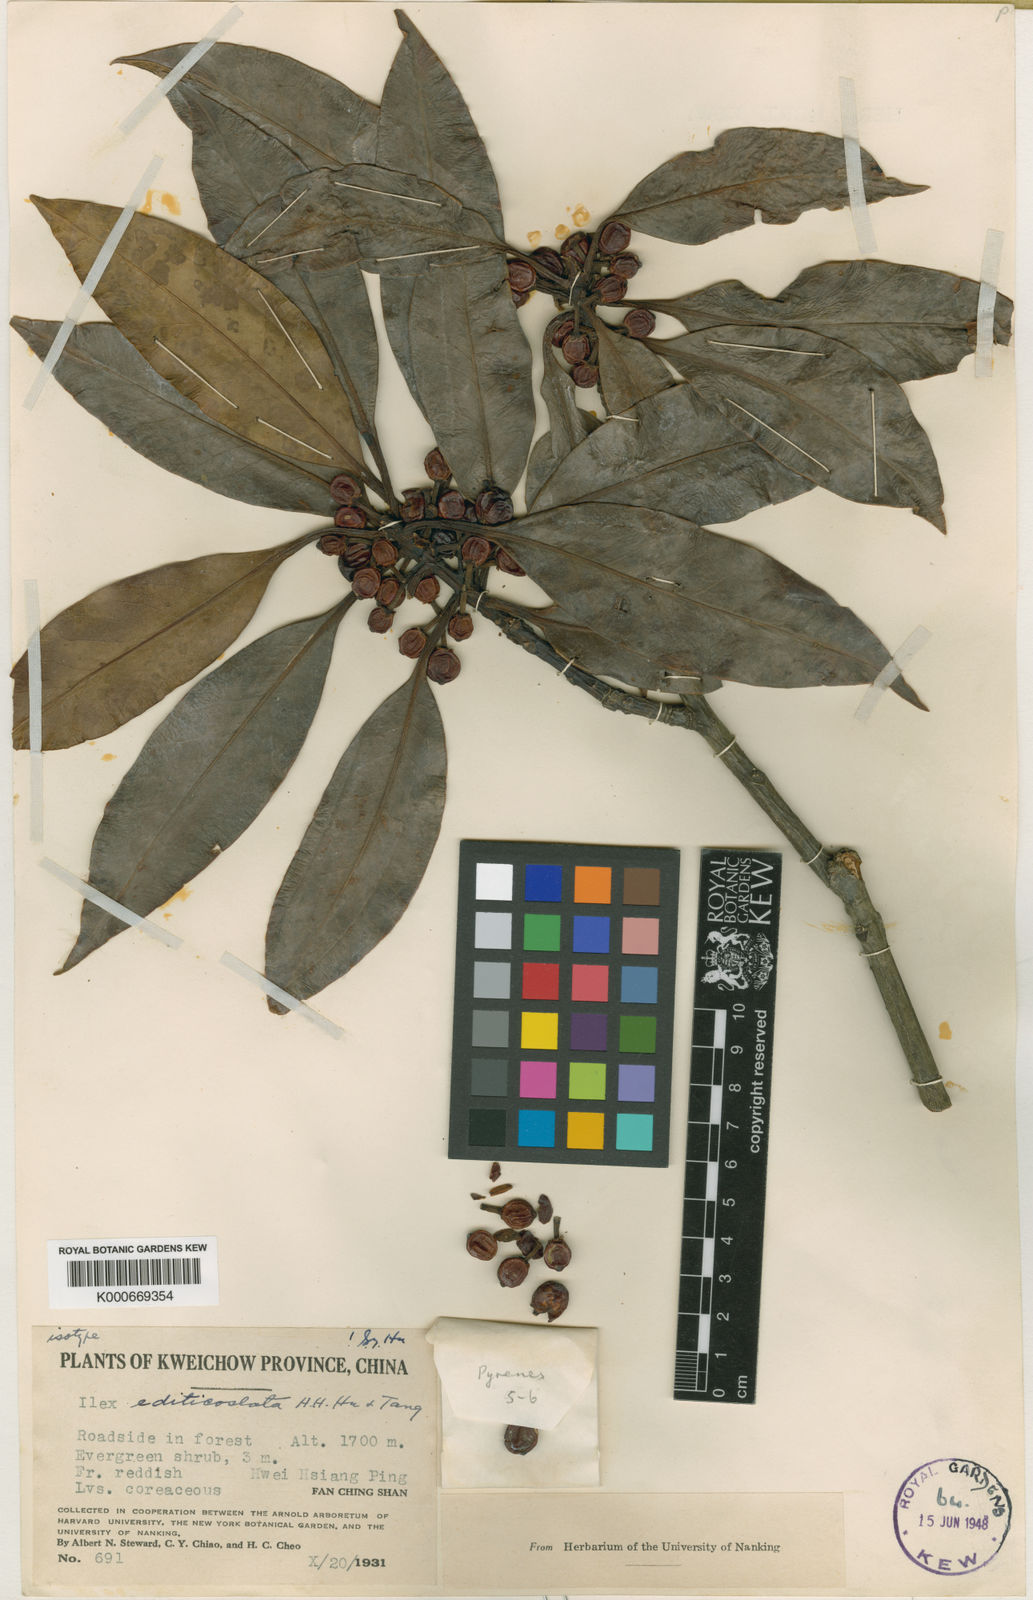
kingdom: Plantae
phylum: Tracheophyta
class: Magnoliopsida
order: Aquifoliales
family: Aquifoliaceae
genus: Ilex
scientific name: Ilex editicostata
